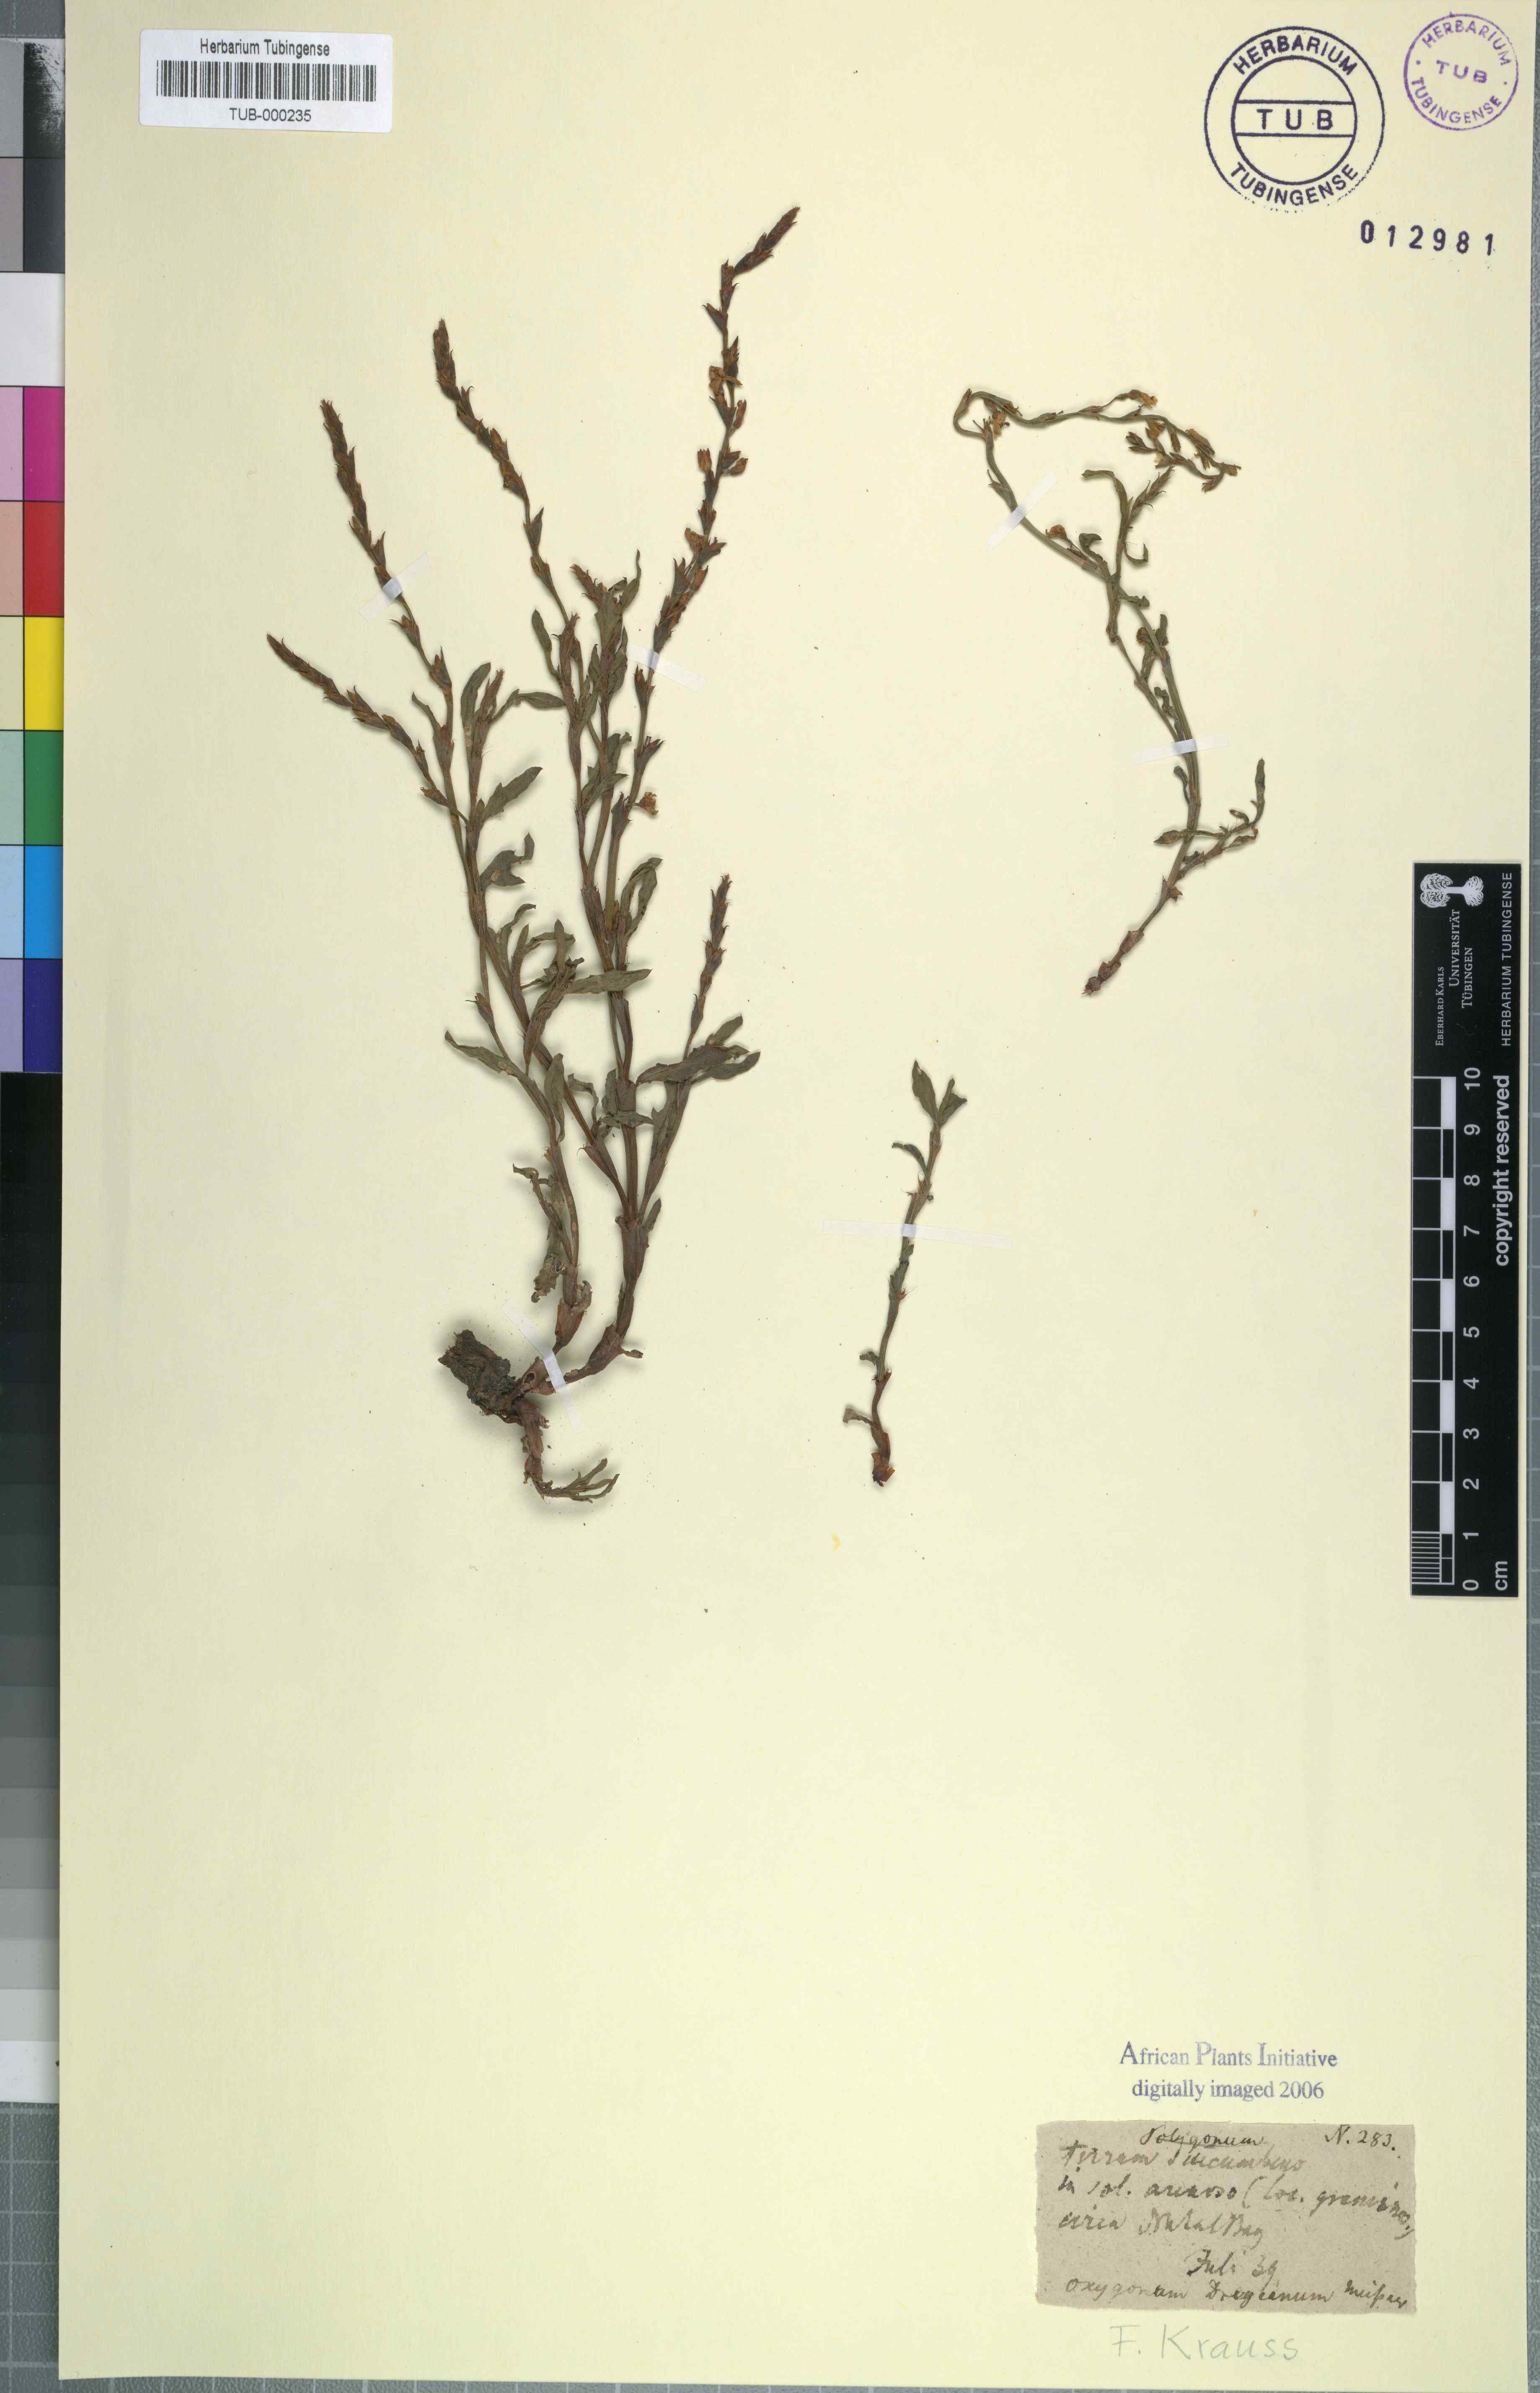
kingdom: Plantae
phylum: Tracheophyta
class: Magnoliopsida
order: Caryophyllales
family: Polygonaceae
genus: Oxygonum
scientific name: Oxygonum dregeanum
